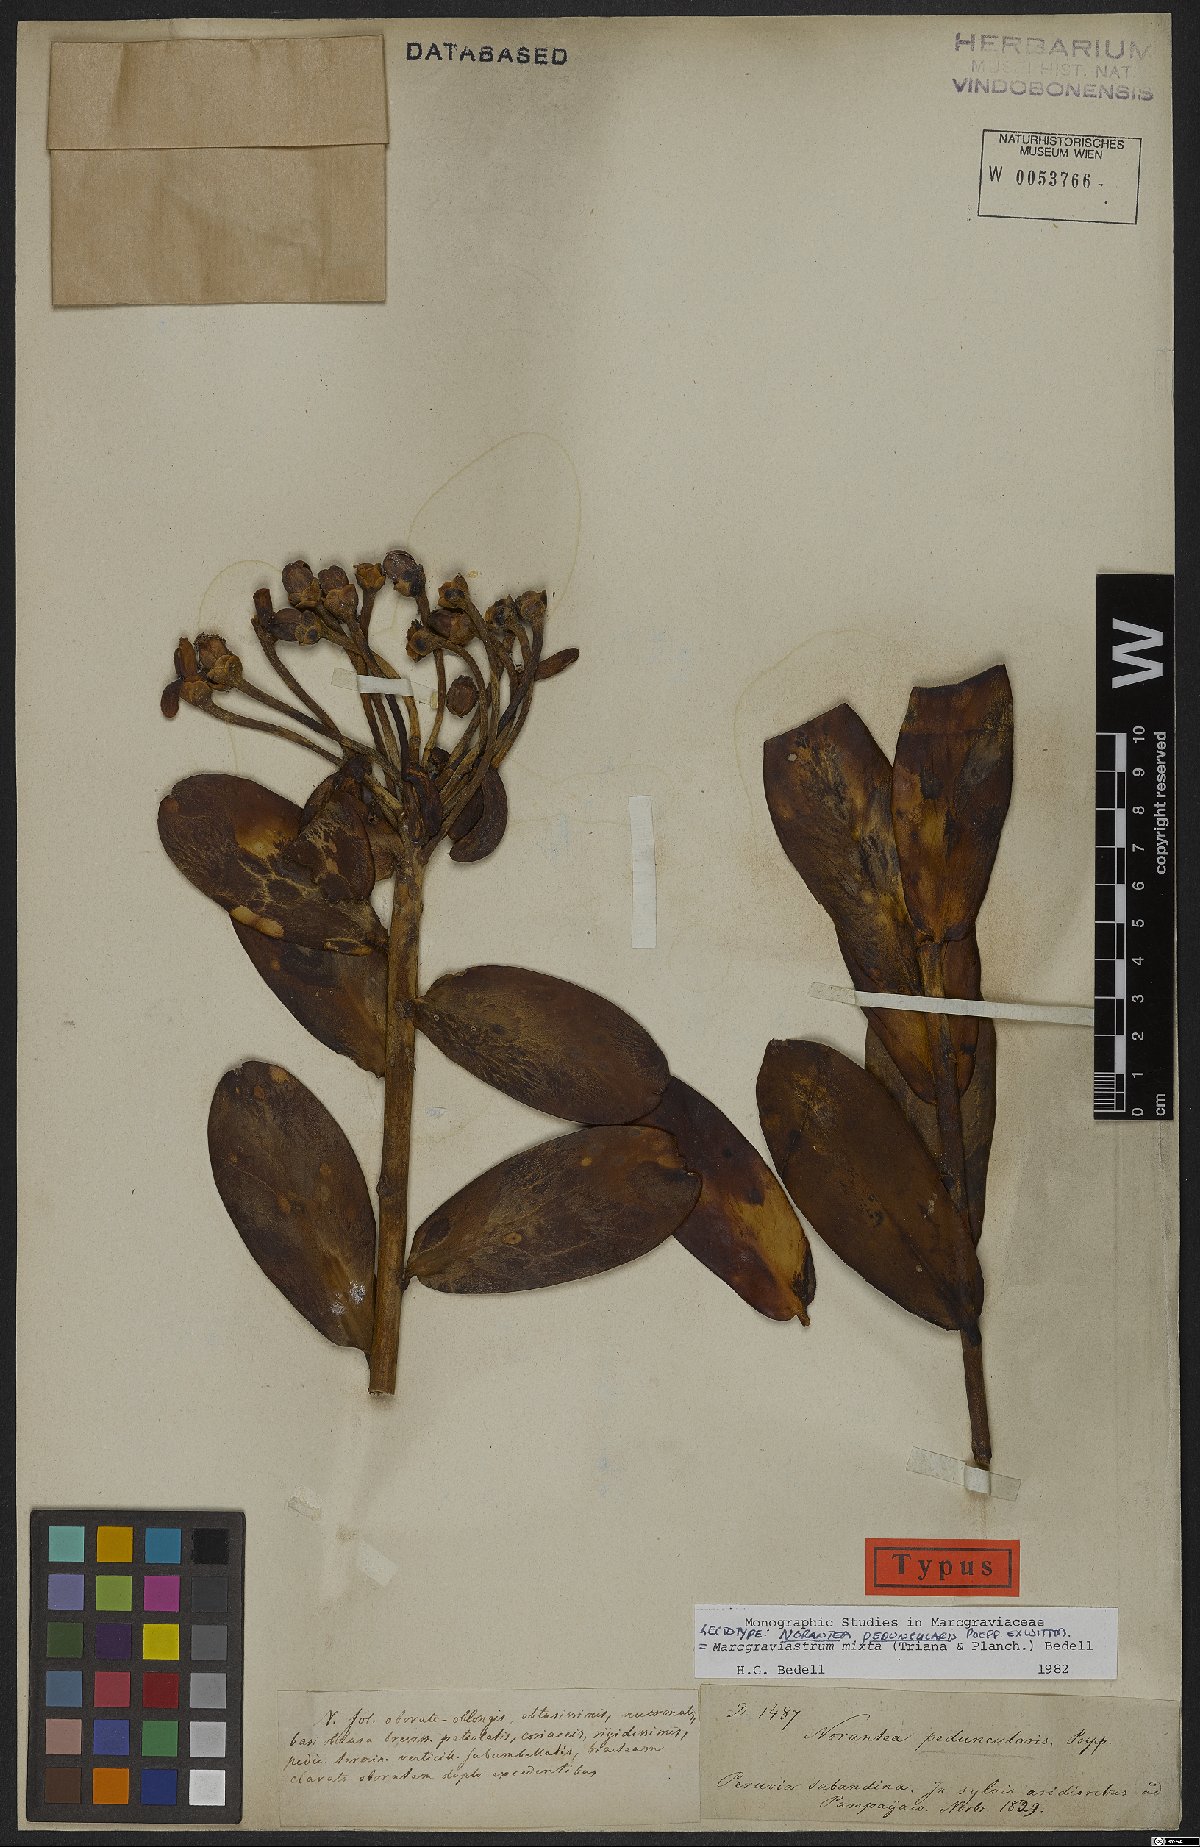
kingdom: Plantae
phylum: Tracheophyta
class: Magnoliopsida
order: Ericales
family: Marcgraviaceae
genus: Marcgraviastrum
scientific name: Marcgraviastrum mixtum
